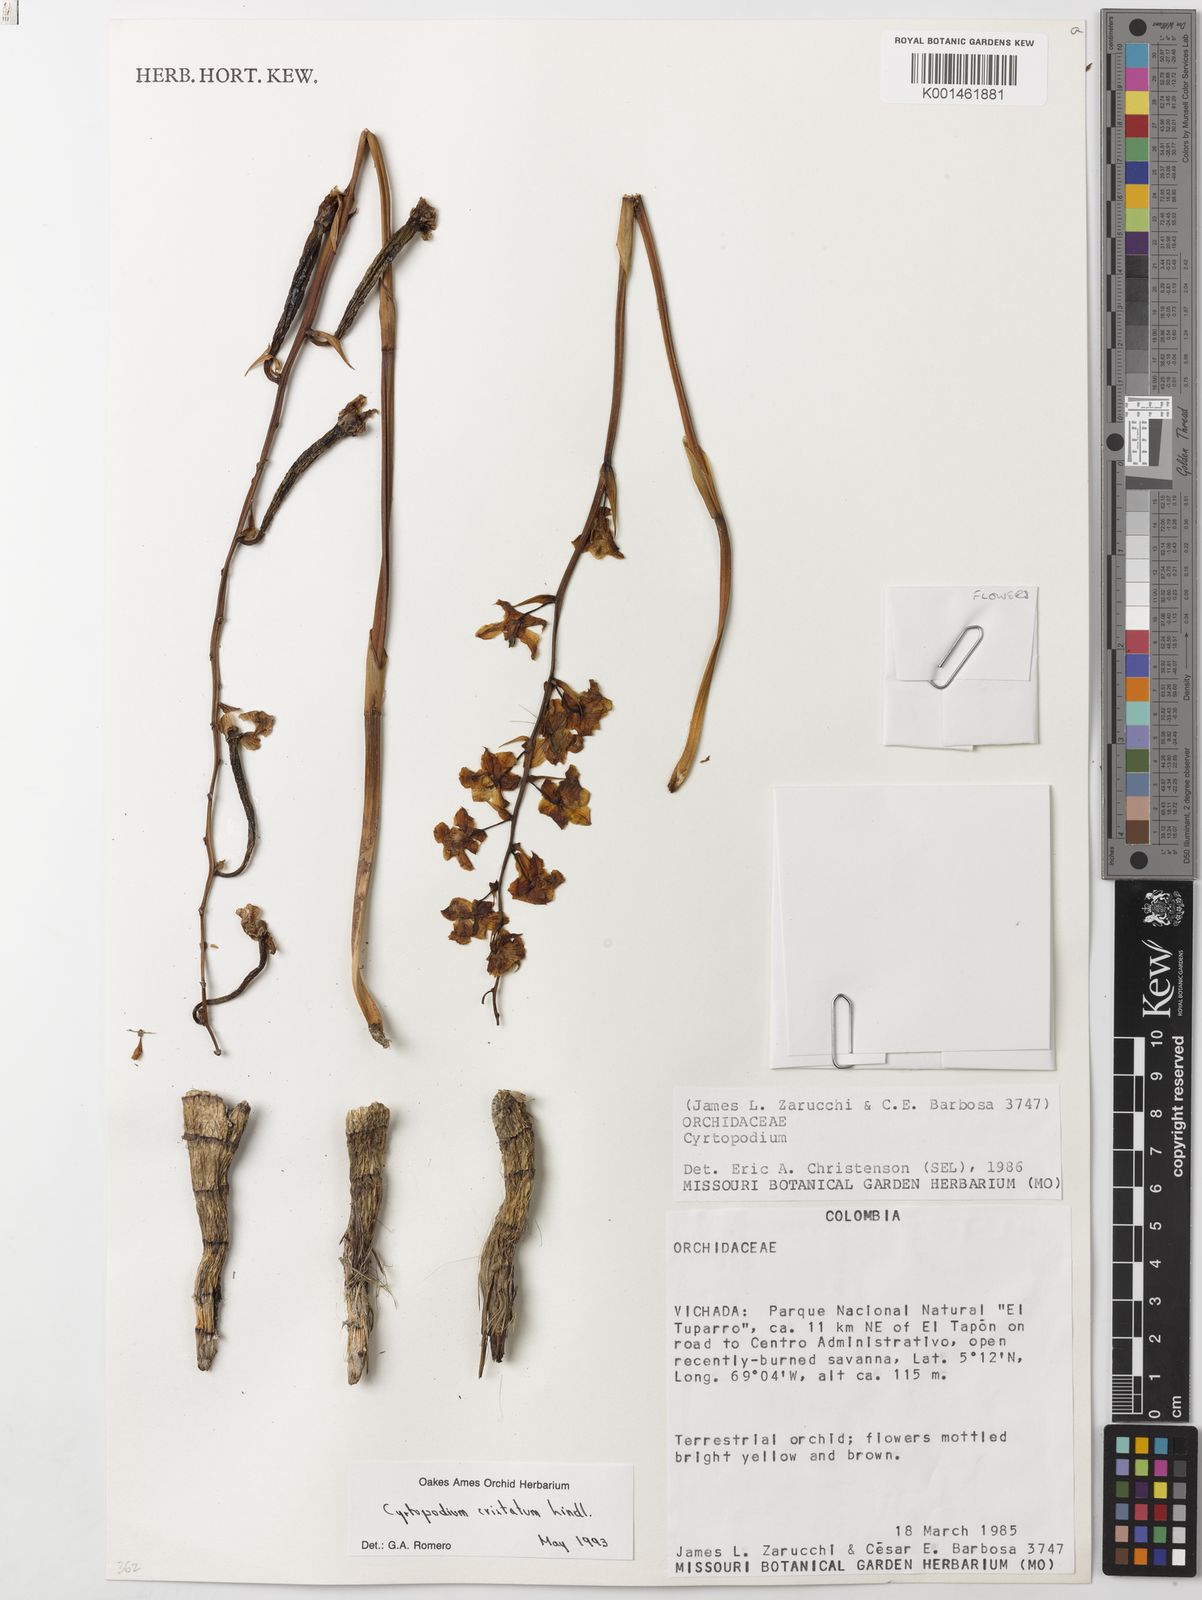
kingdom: Plantae
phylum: Tracheophyta
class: Liliopsida
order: Asparagales
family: Orchidaceae
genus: Cyrtopodium
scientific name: Cyrtopodium cristatum
